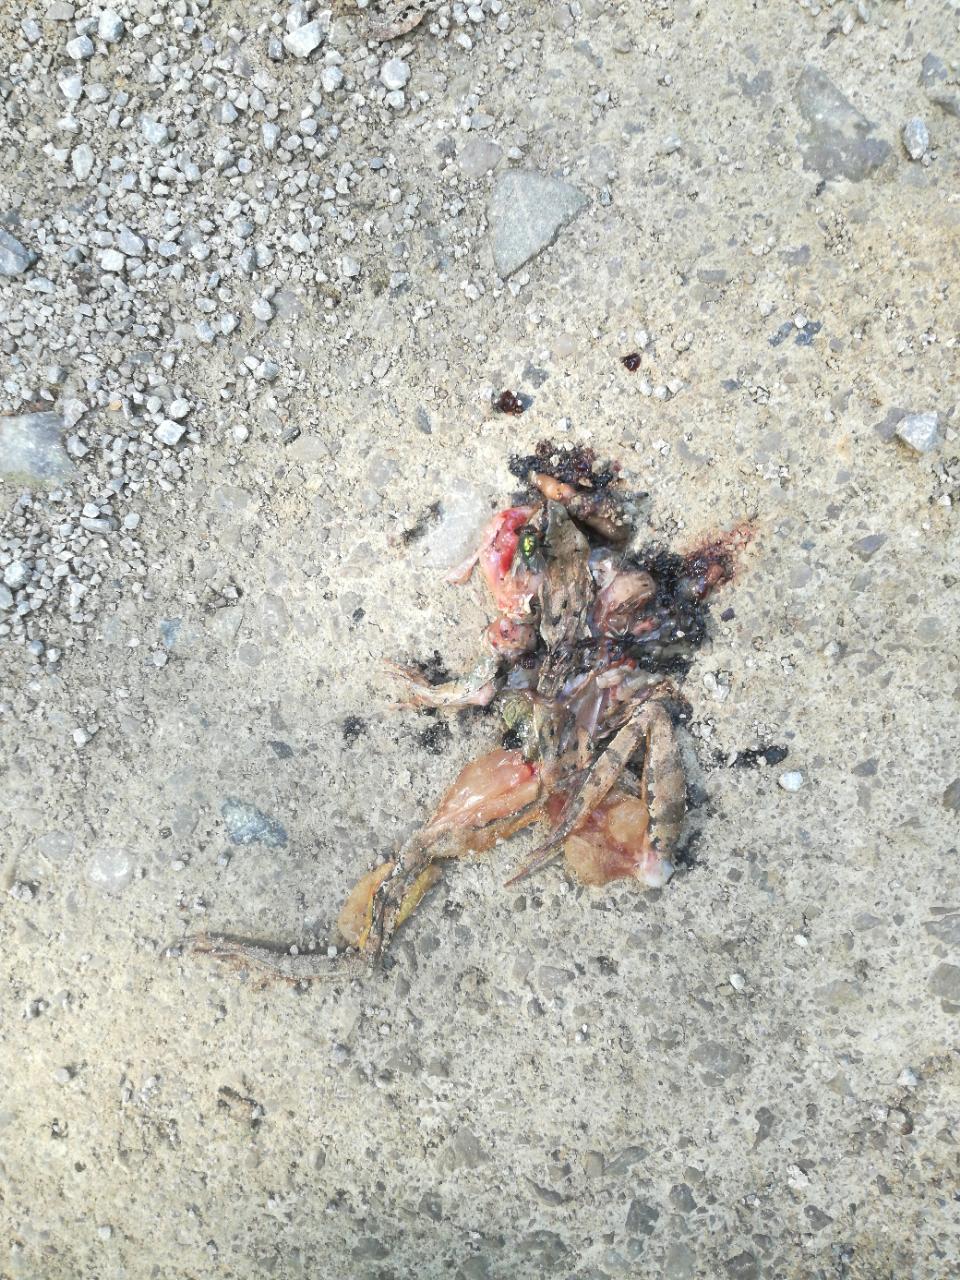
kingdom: Animalia
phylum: Chordata
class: Amphibia
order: Anura
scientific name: Anura
